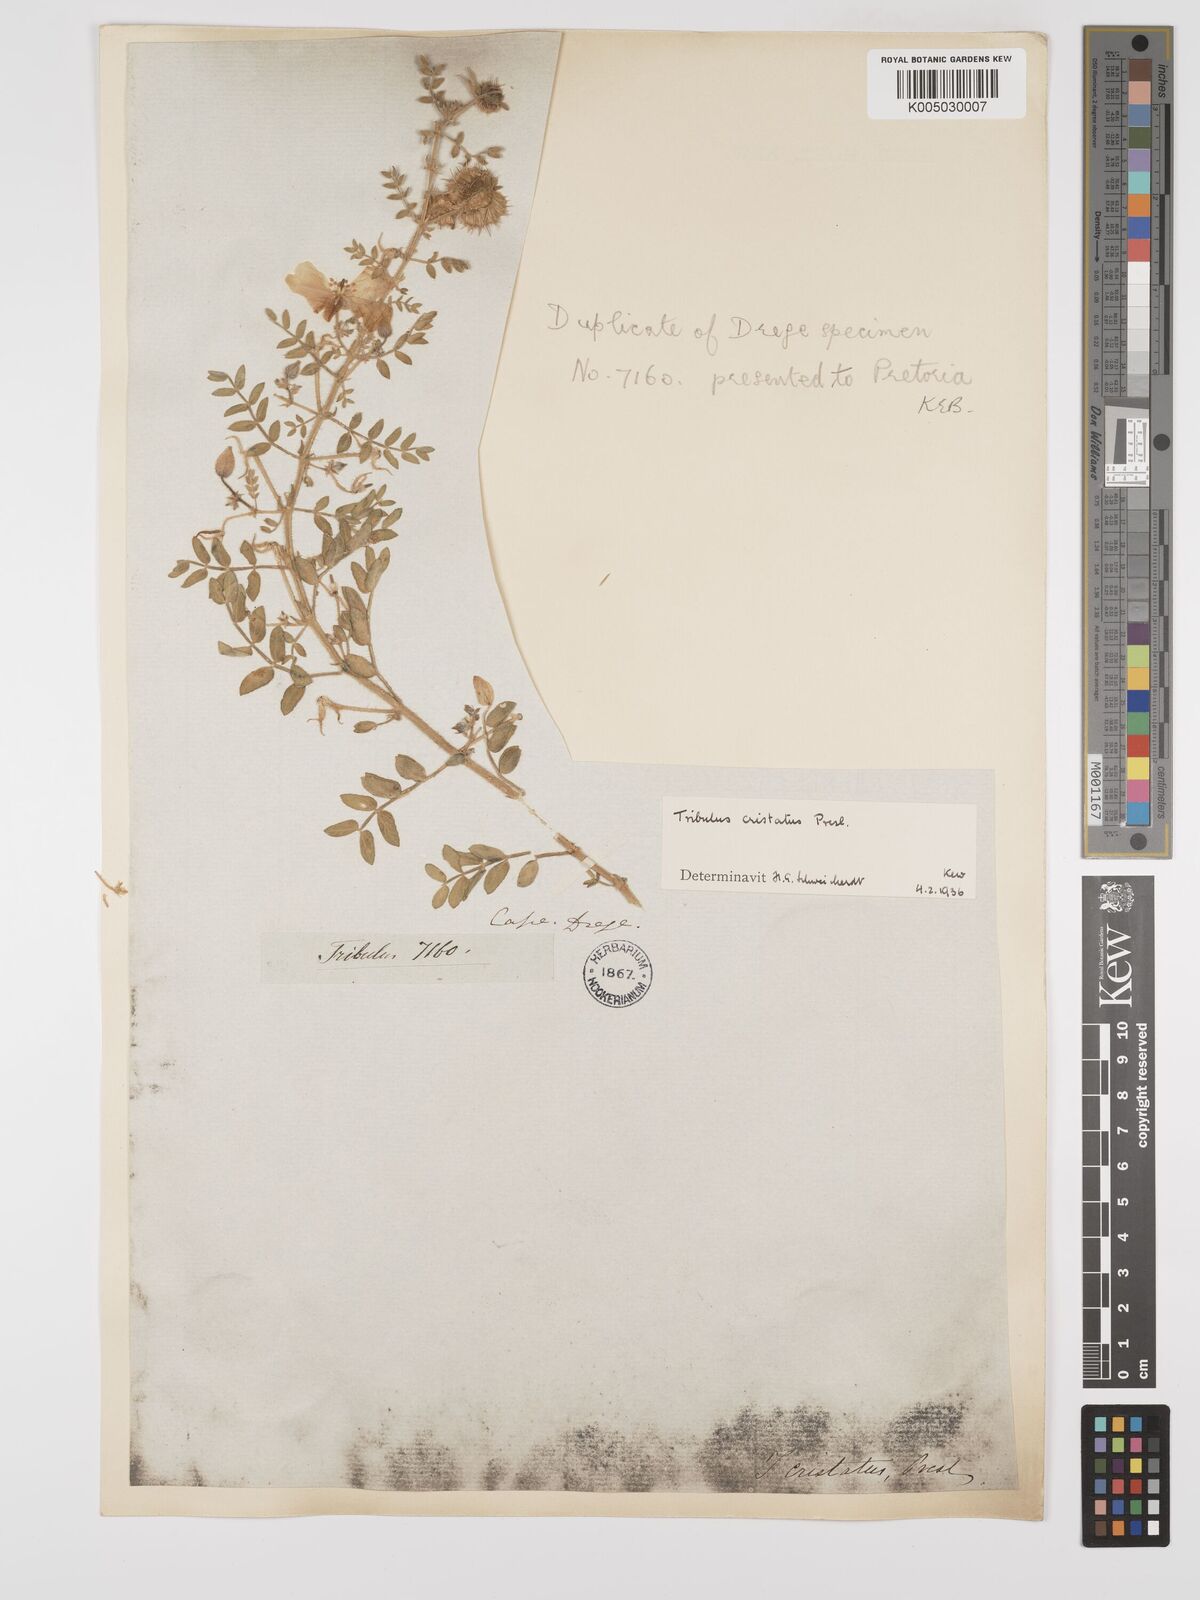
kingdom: Plantae
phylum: Tracheophyta
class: Magnoliopsida
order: Zygophyllales
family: Zygophyllaceae
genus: Tribulus
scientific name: Tribulus cristatus
